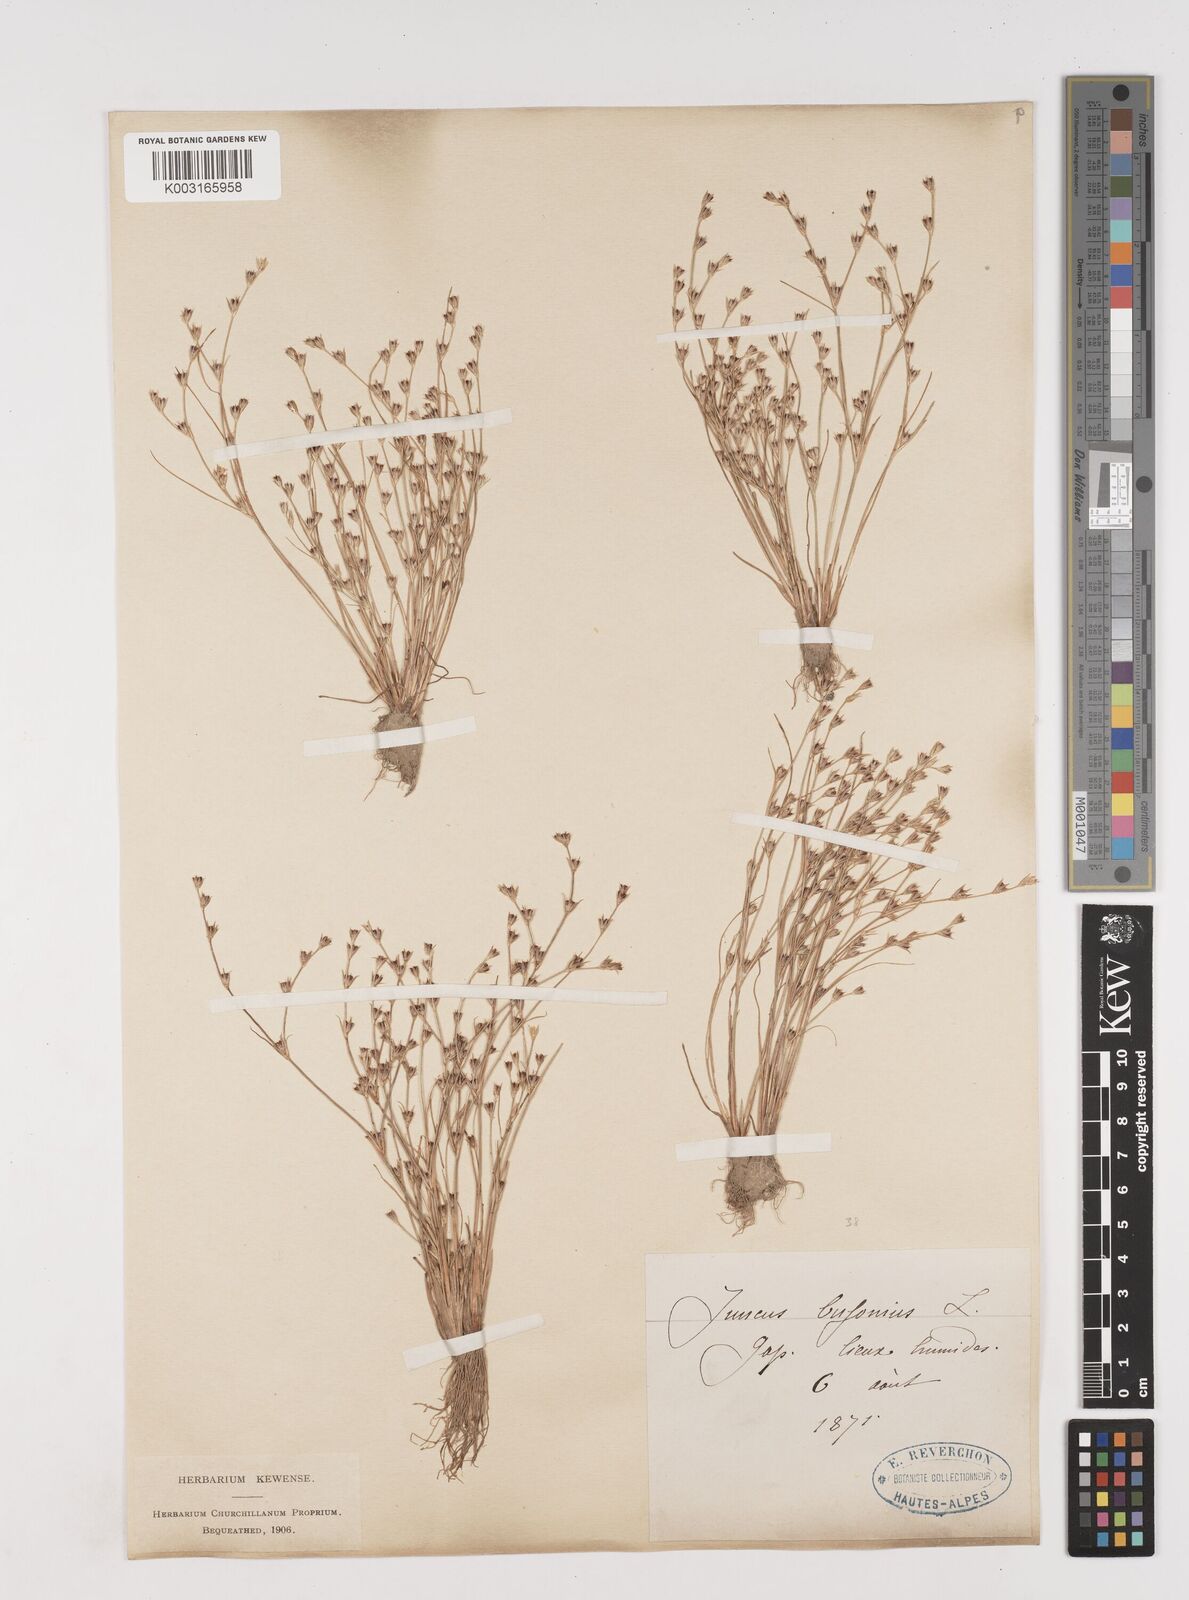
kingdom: Plantae
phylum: Tracheophyta
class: Liliopsida
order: Poales
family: Juncaceae
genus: Juncus
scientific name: Juncus bufonius
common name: Toad rush
